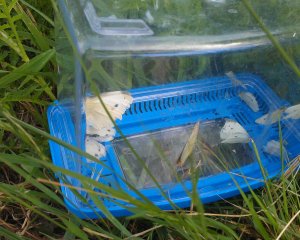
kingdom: Animalia
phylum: Arthropoda
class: Insecta
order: Lepidoptera
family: Pieridae
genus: Pieris
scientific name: Pieris rapae
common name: Cabbage White
